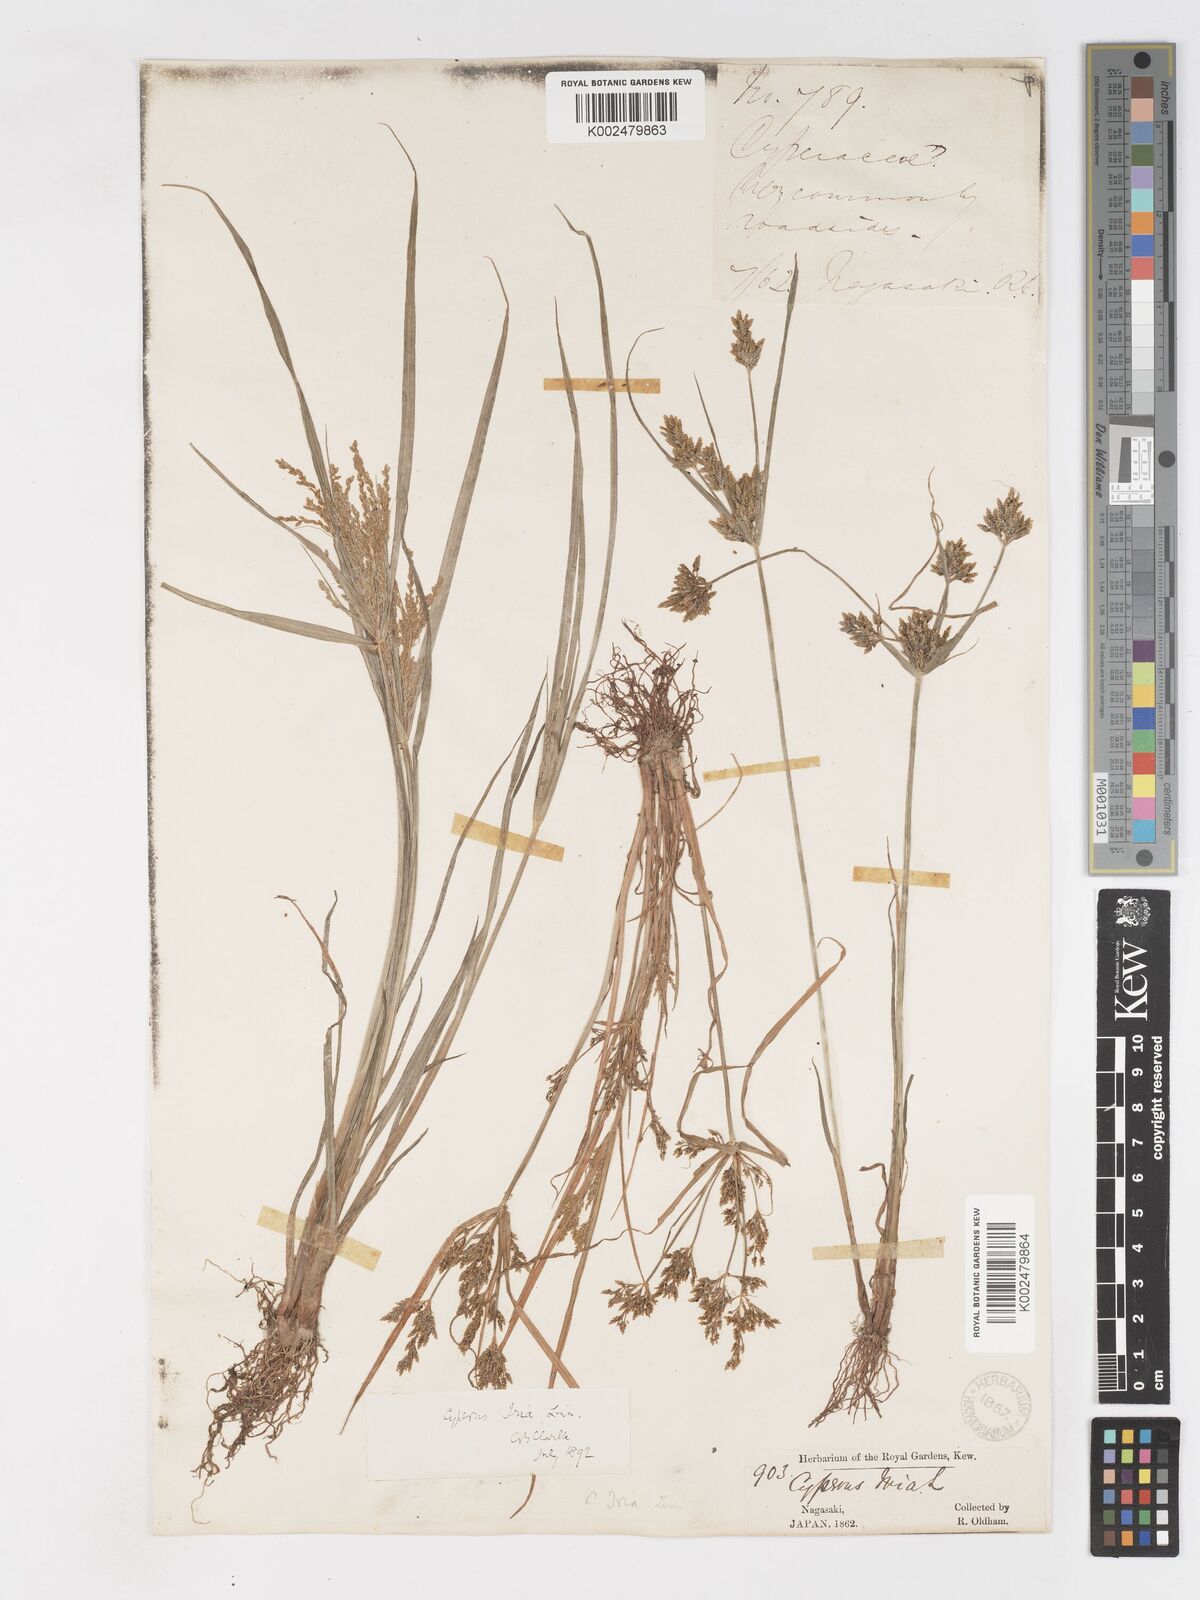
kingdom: Plantae
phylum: Tracheophyta
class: Liliopsida
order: Poales
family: Cyperaceae
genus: Cyperus
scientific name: Cyperus iria
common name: Ricefield flatsedge
